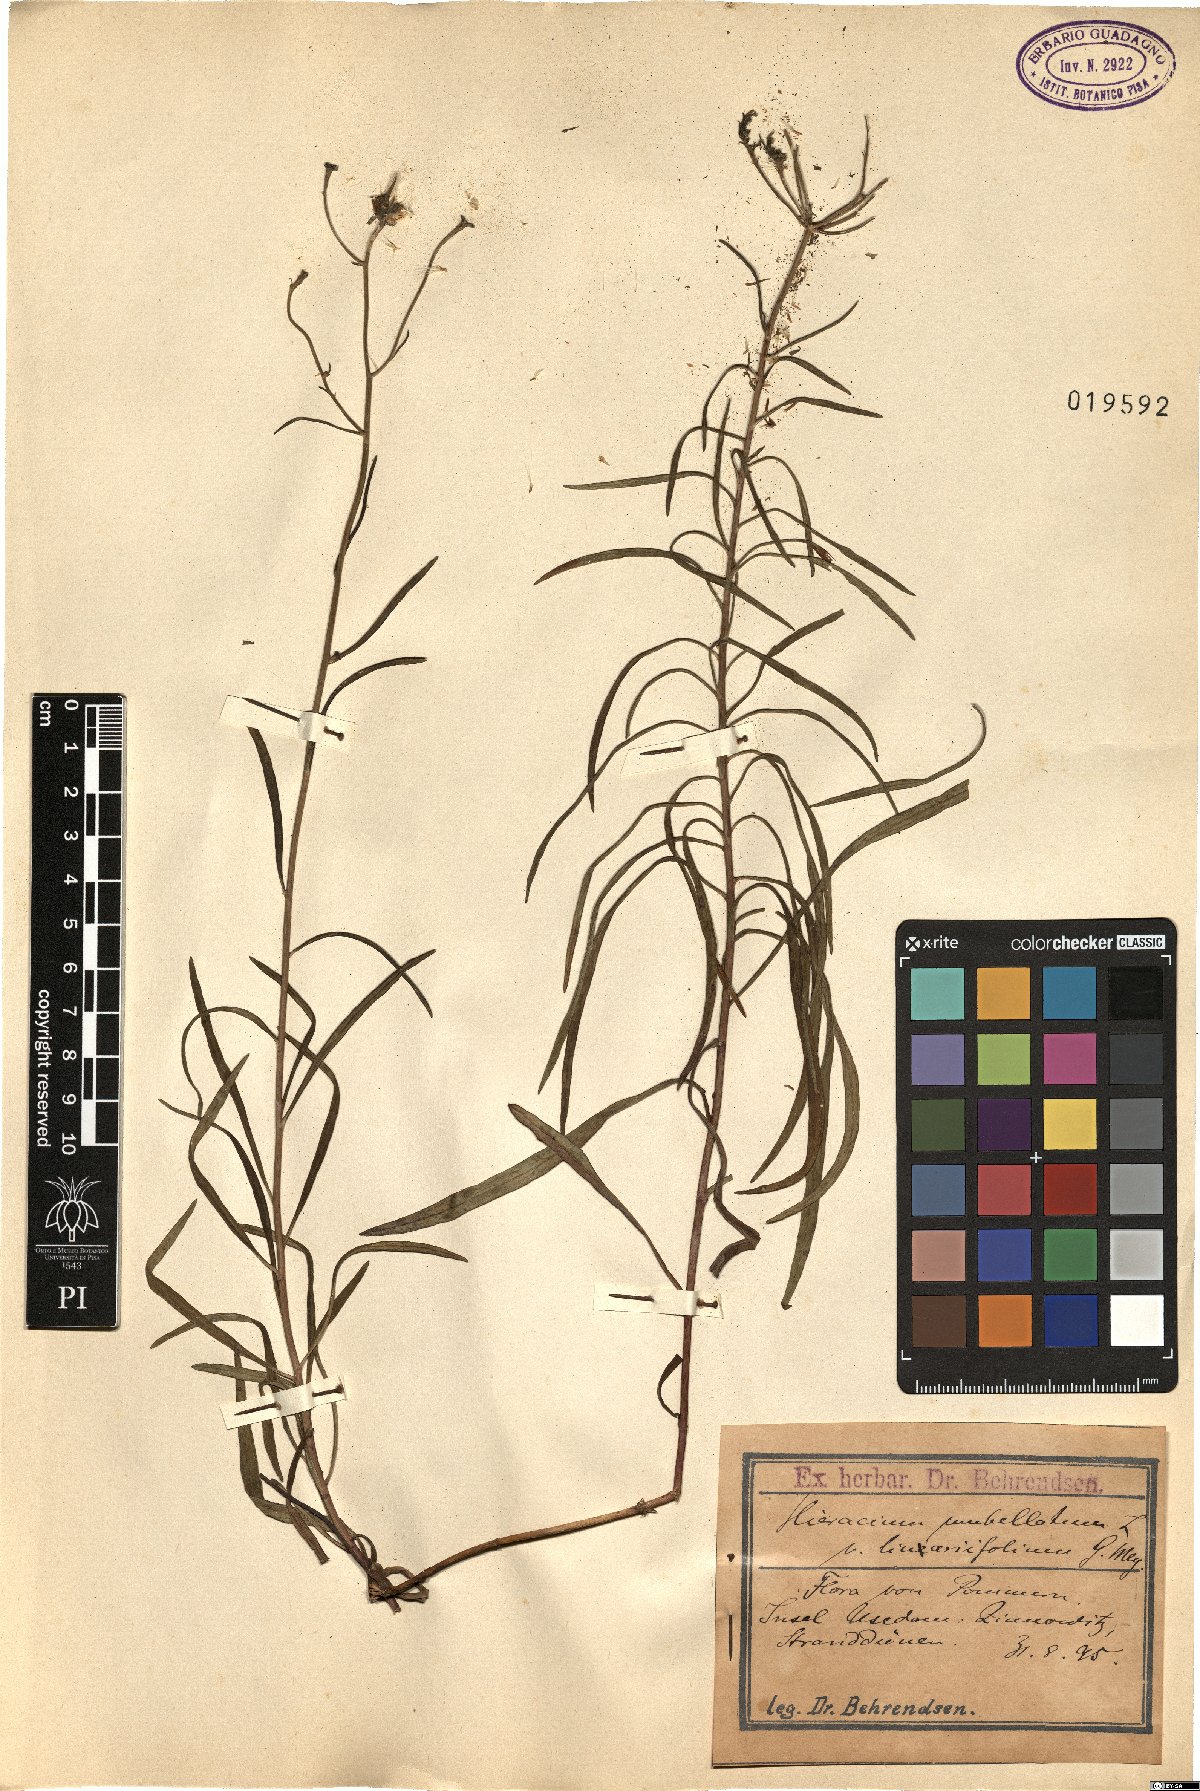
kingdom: Plantae
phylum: Tracheophyta
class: Magnoliopsida
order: Asterales
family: Asteraceae
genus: Hieracium
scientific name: Hieracium umbellatum
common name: Northern hawkweed
